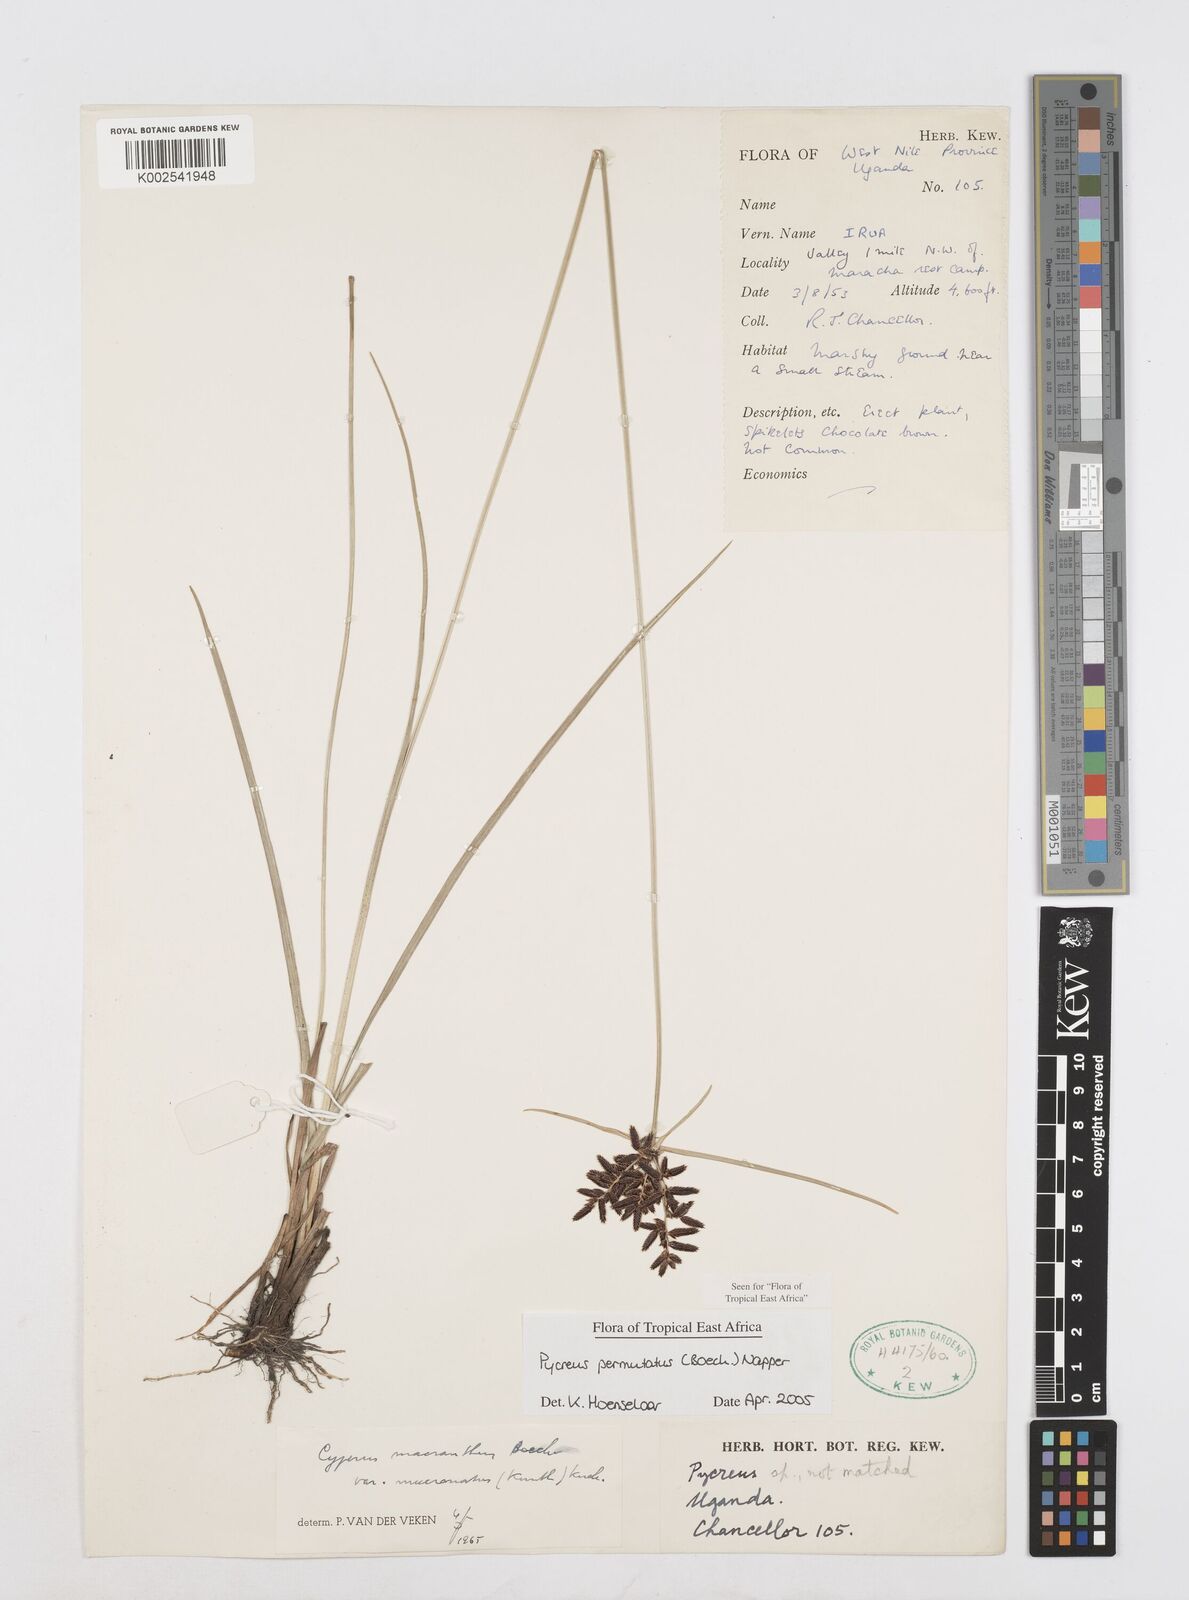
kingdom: Plantae
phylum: Tracheophyta
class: Liliopsida
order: Poales
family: Cyperaceae
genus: Cyperus
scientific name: Cyperus nigricans
